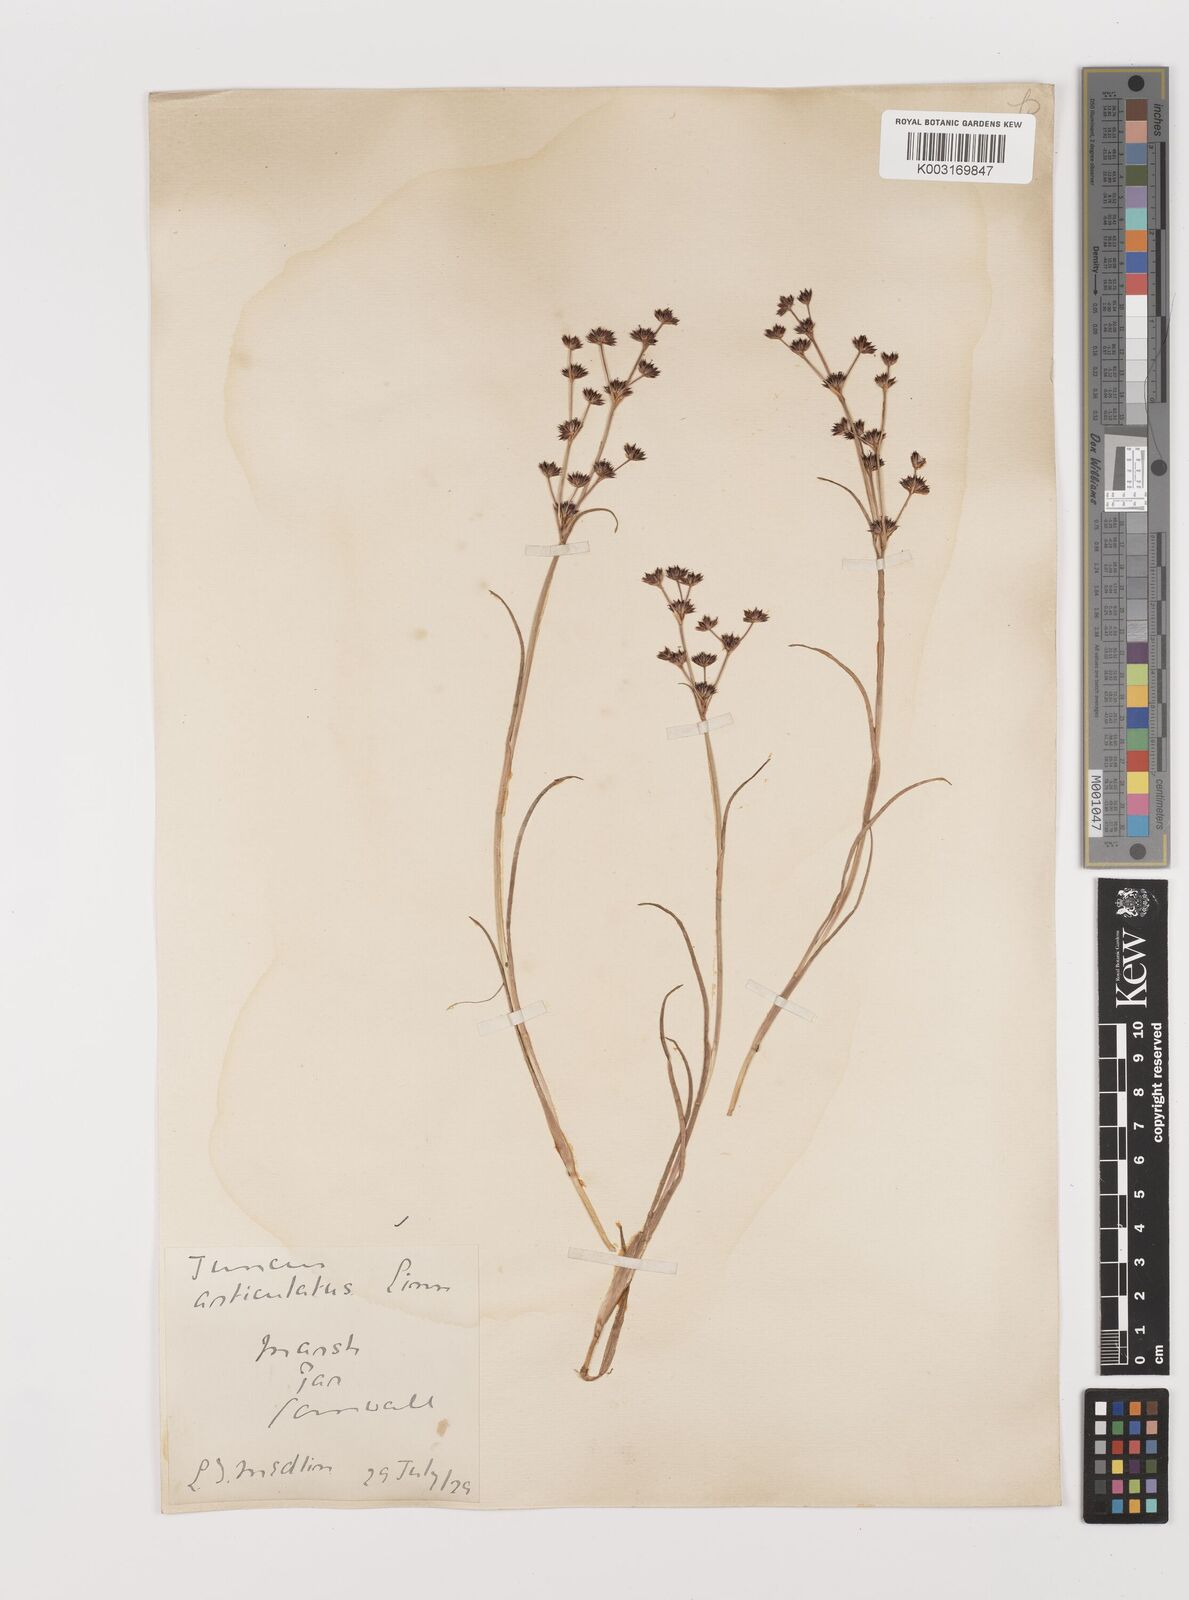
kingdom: Plantae
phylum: Tracheophyta
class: Liliopsida
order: Poales
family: Juncaceae
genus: Juncus
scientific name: Juncus articulatus
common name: Jointed rush
